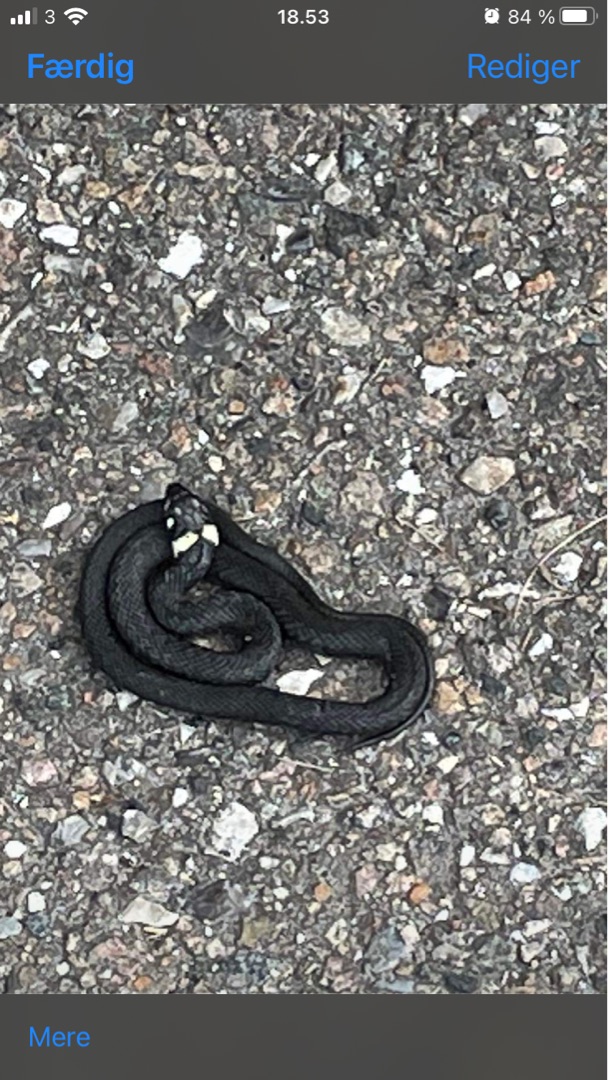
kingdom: Animalia
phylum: Chordata
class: Squamata
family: Colubridae
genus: Natrix
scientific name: Natrix natrix
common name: Snog
